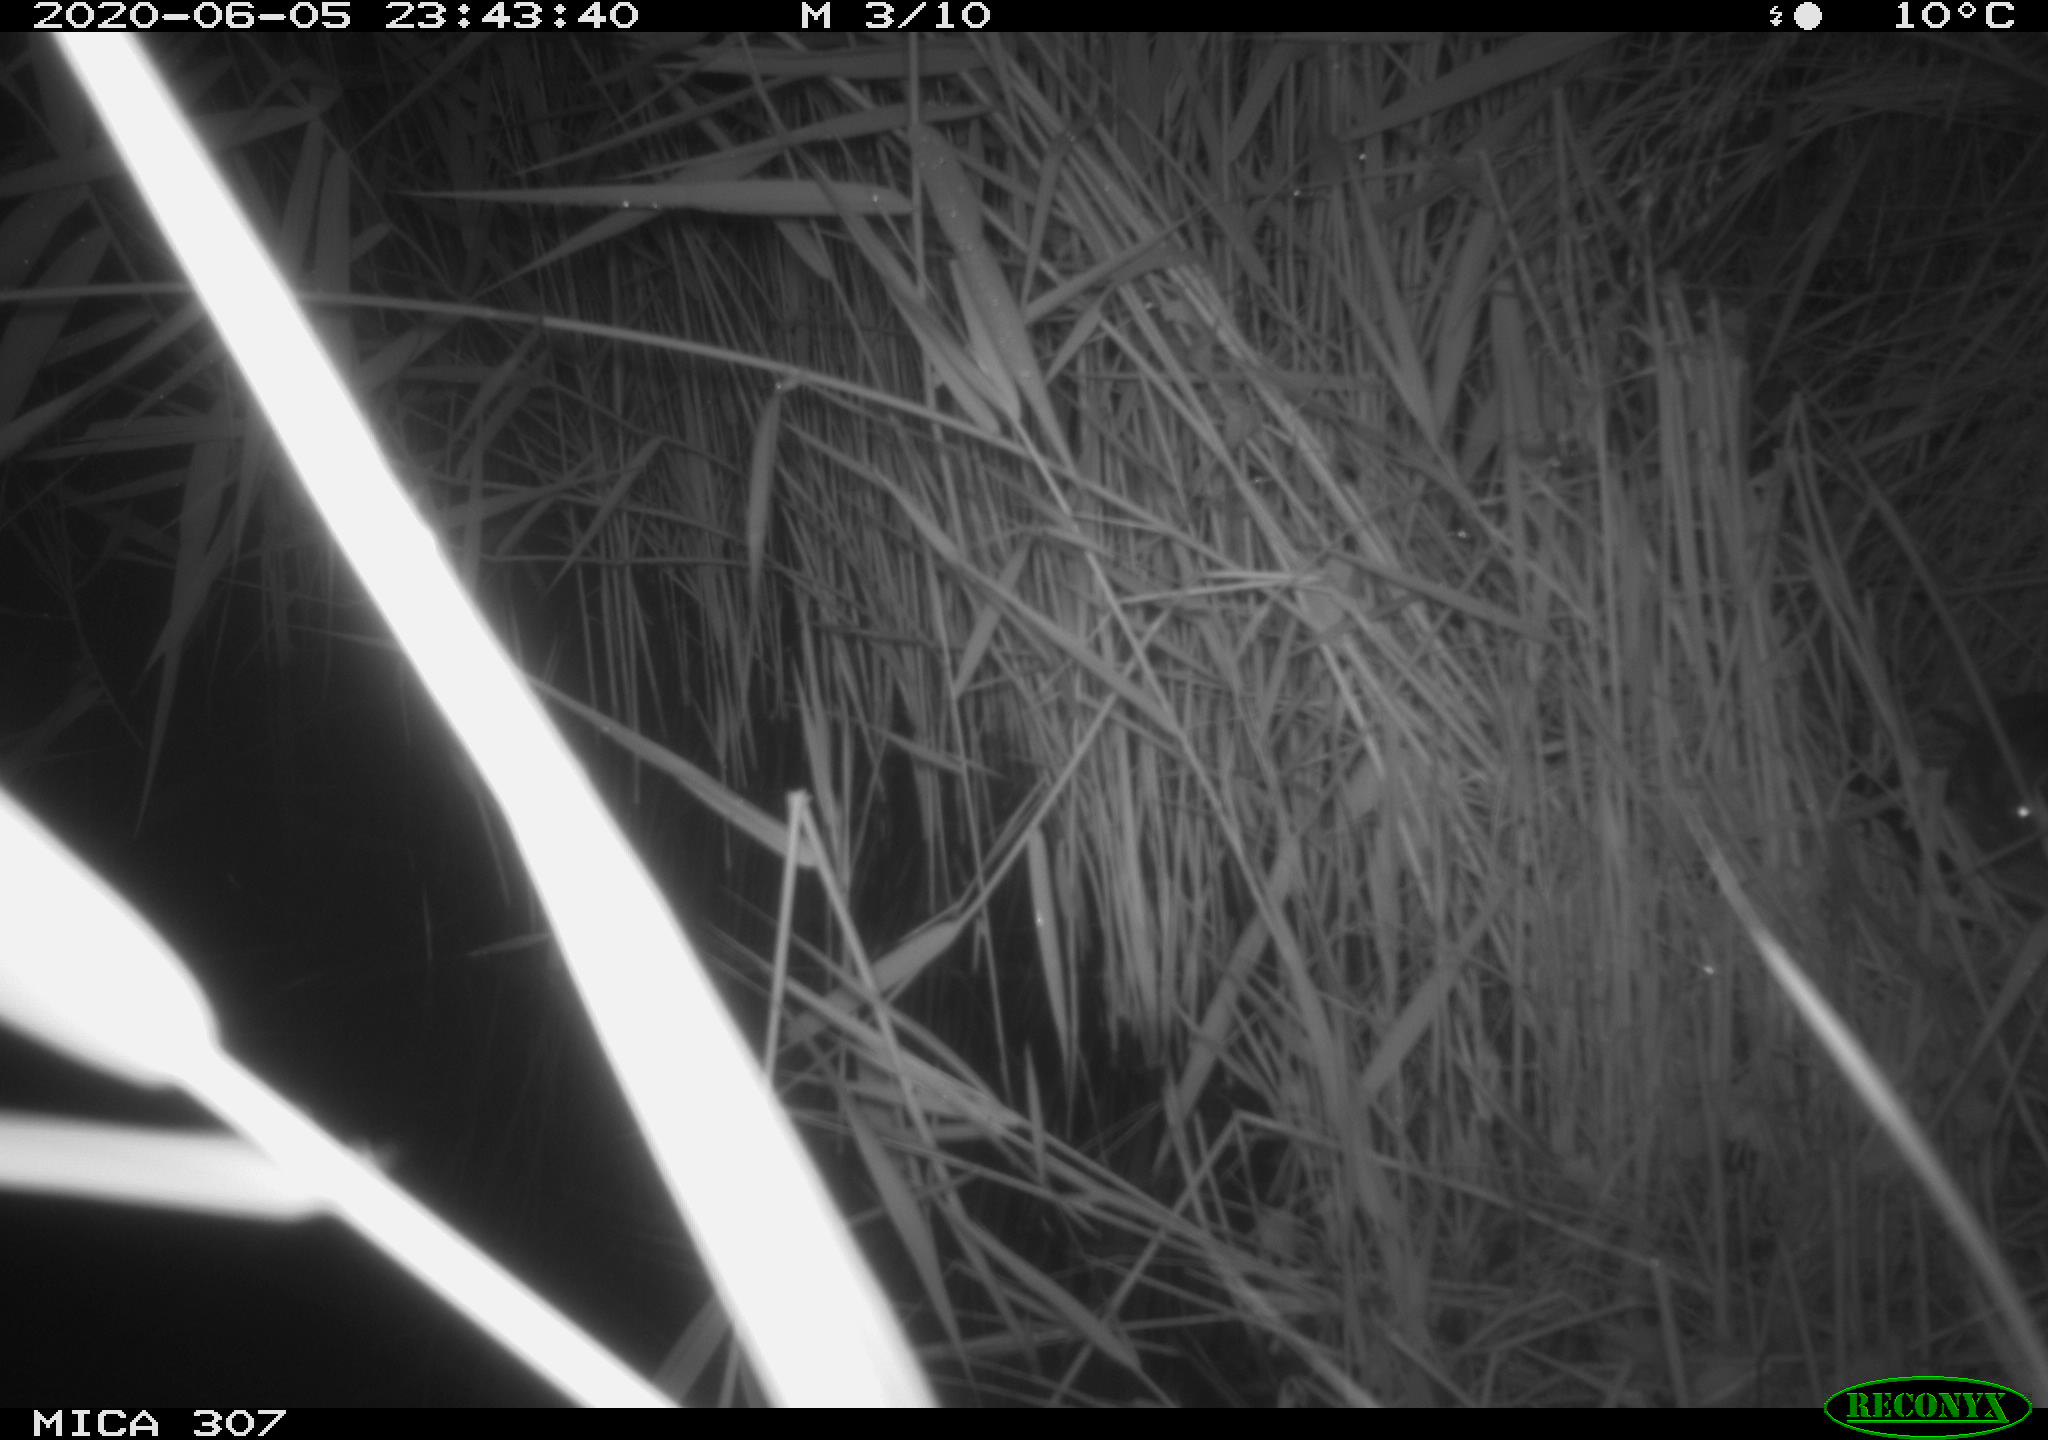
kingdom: Animalia
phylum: Chordata
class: Mammalia
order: Rodentia
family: Muridae
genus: Rattus
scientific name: Rattus norvegicus
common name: Brown rat
